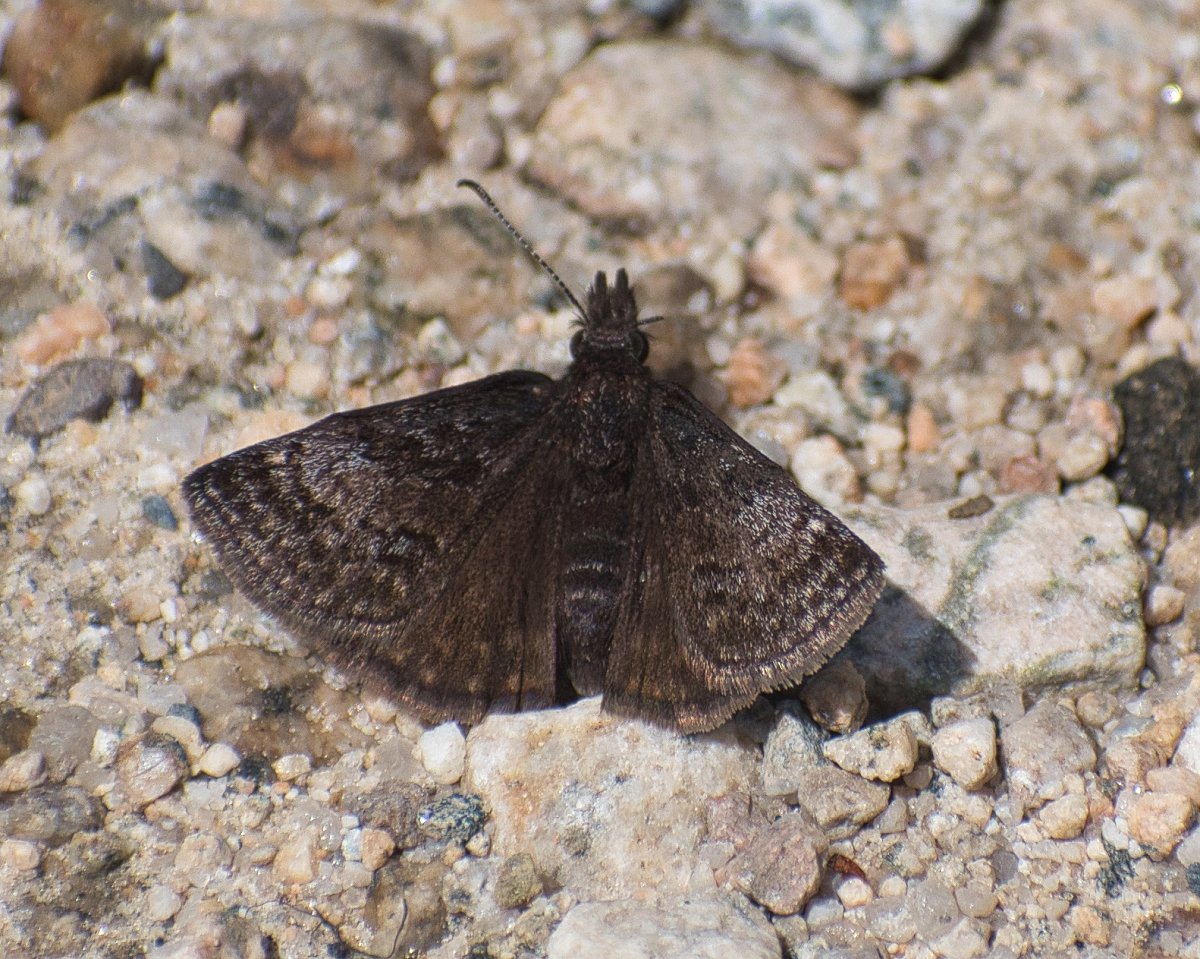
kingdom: Animalia
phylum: Arthropoda
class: Insecta
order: Lepidoptera
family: Hesperiidae
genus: Erynnis
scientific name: Erynnis icelus
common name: Dreamy Duskywing
